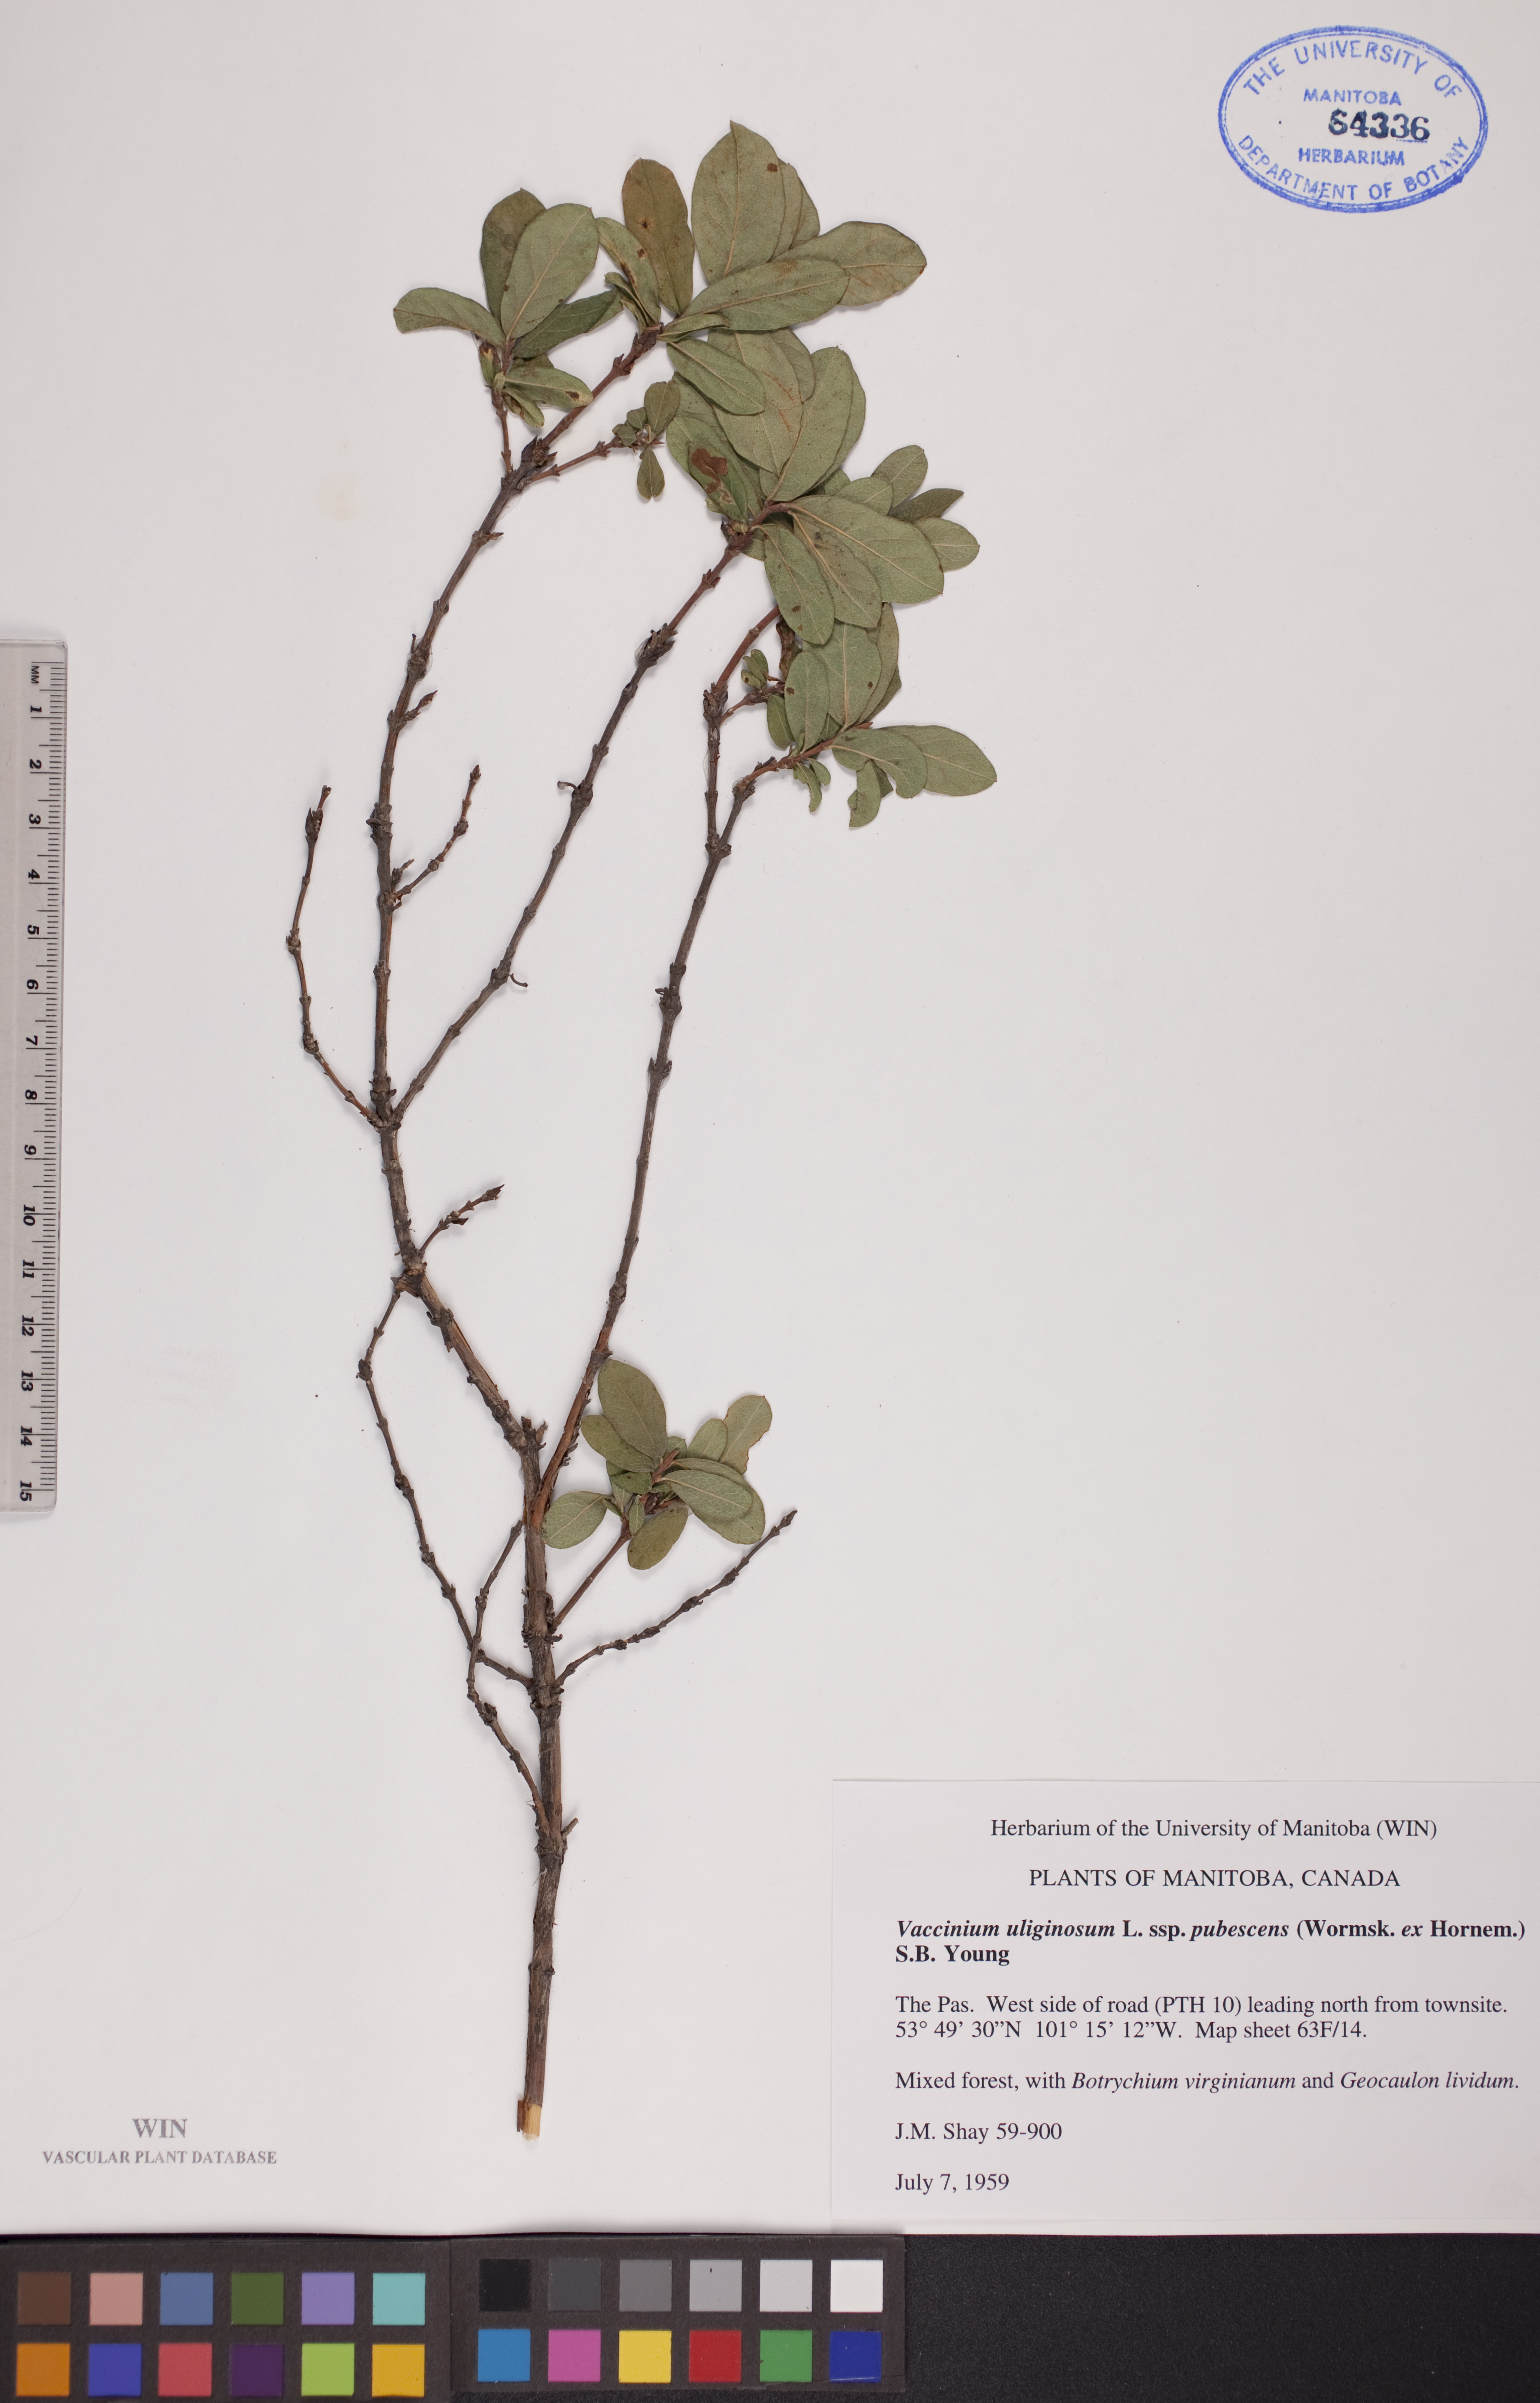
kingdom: Plantae
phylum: Tracheophyta
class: Magnoliopsida
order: Ericales
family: Ericaceae
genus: Vaccinium
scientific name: Vaccinium uliginosum
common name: Bog bilberry
